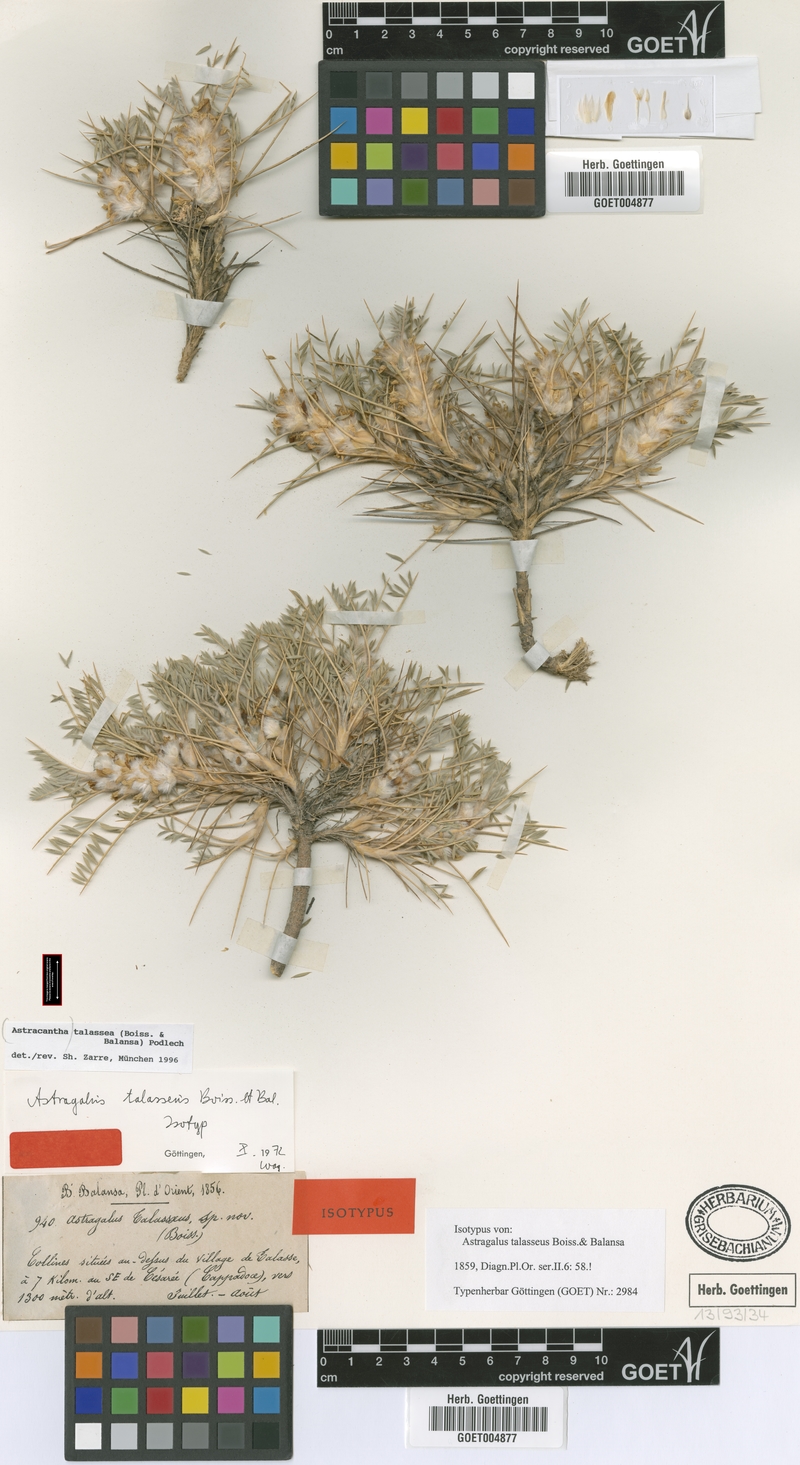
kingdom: Plantae
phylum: Tracheophyta
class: Magnoliopsida
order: Fabales
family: Fabaceae
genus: Astragalus
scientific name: Astragalus talasseus
